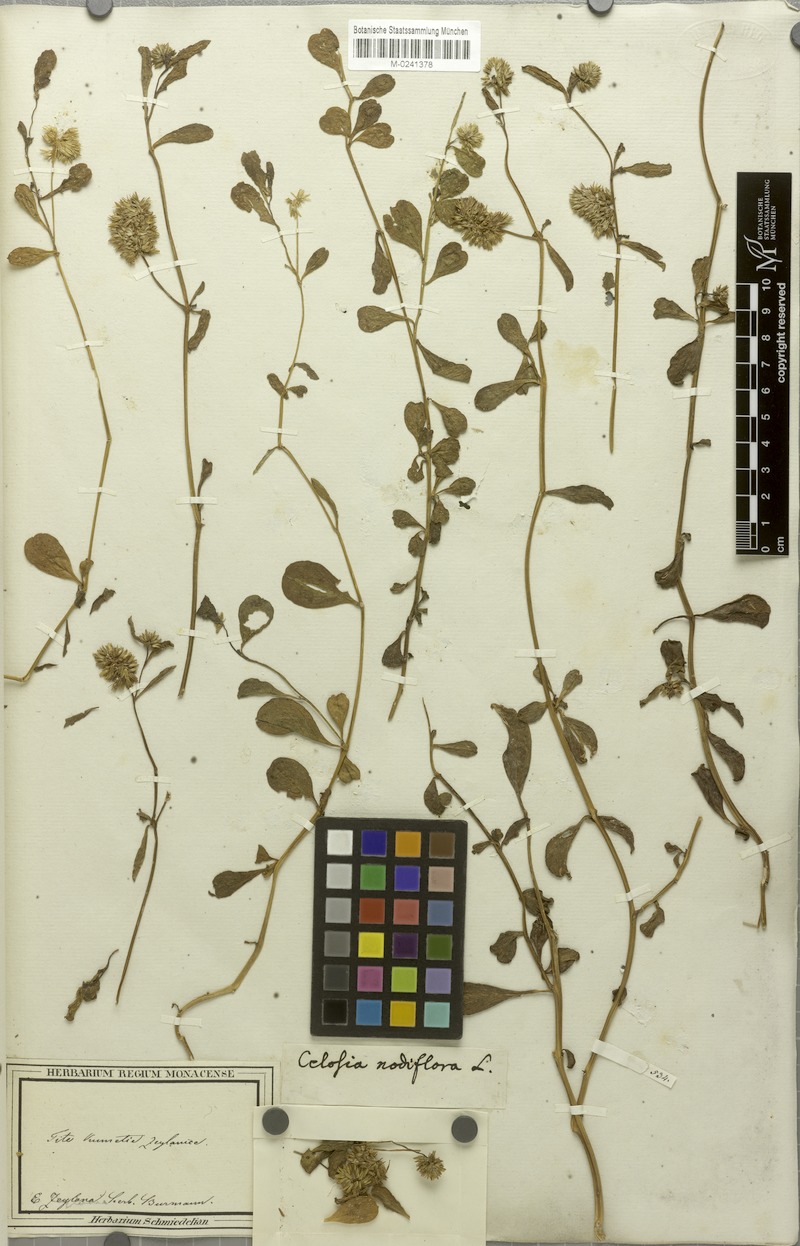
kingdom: Plantae
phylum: Tracheophyta
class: Magnoliopsida
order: Caryophyllales
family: Amaranthaceae
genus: Allmania
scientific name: Allmania nodiflora
